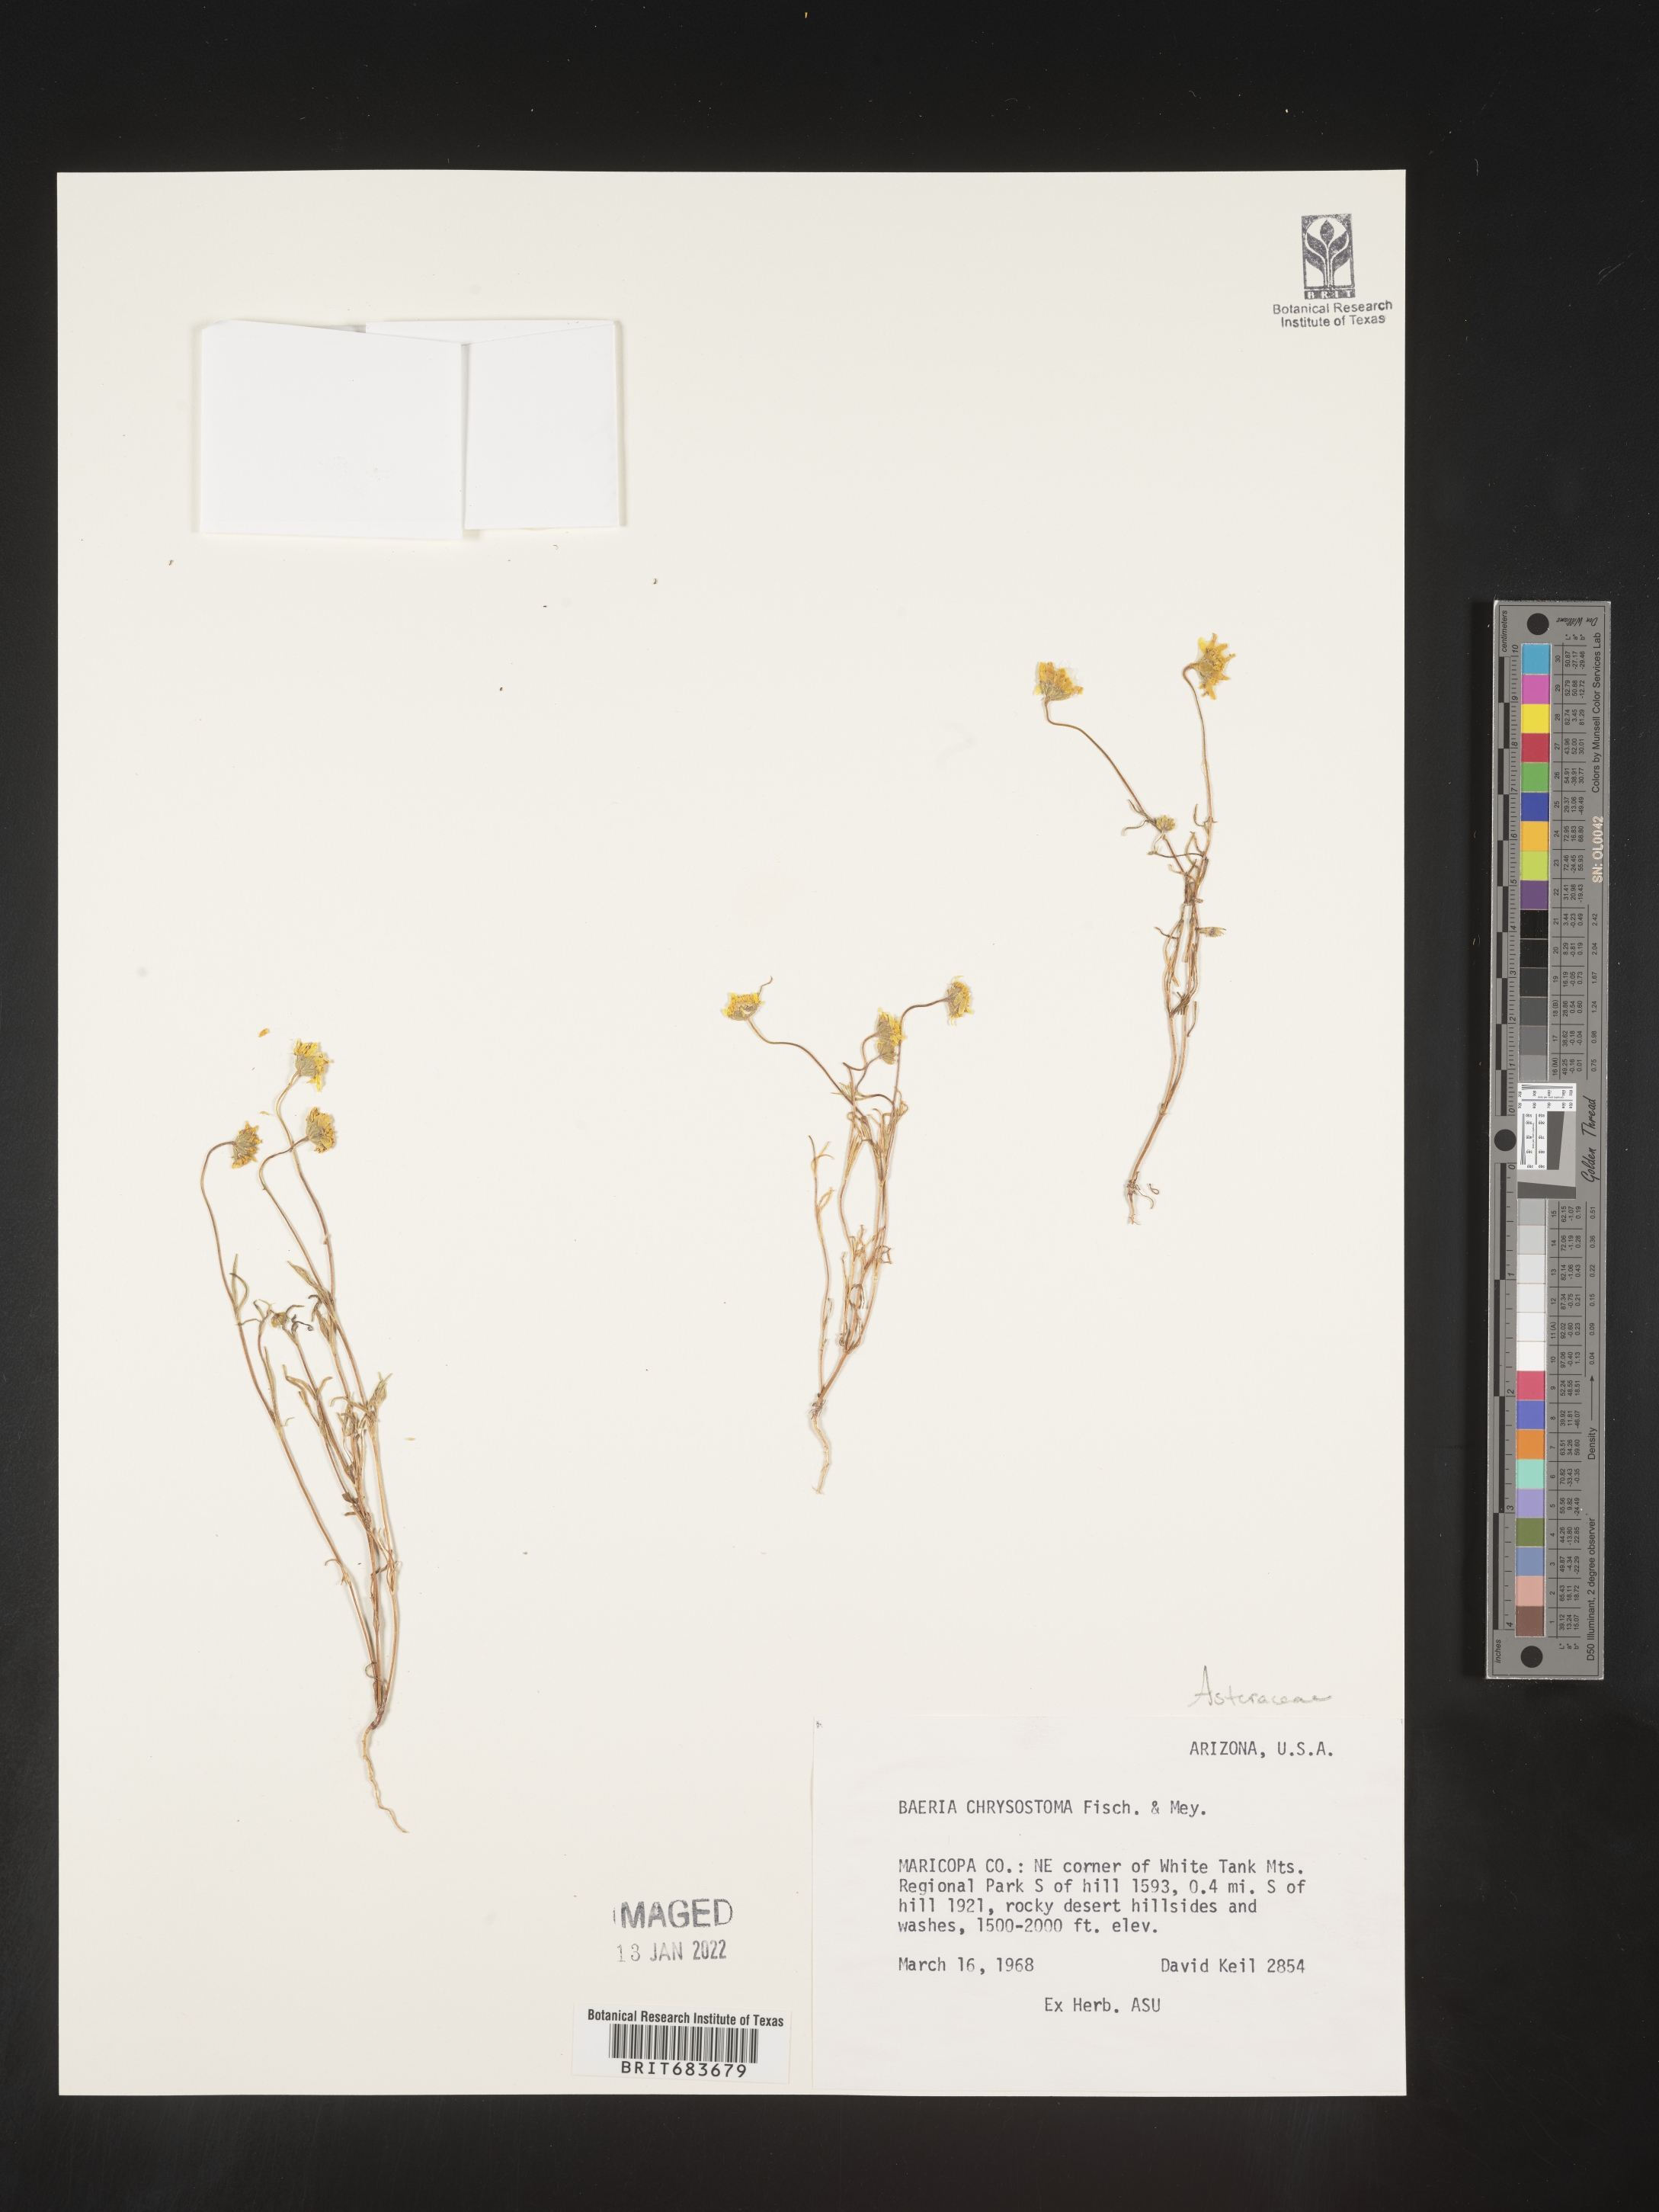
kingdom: Plantae
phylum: Tracheophyta
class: Magnoliopsida
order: Asterales
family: Asteraceae
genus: Lasthenia
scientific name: Lasthenia
